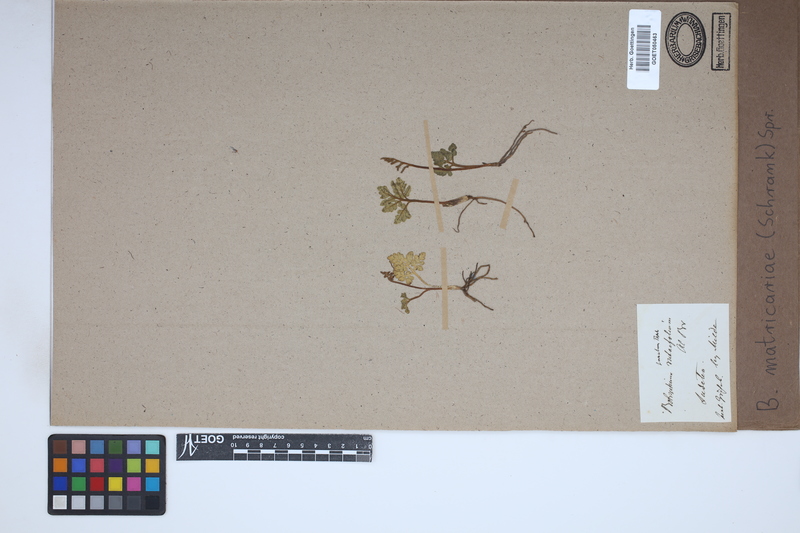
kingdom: Plantae
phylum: Tracheophyta
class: Polypodiopsida
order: Ophioglossales
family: Ophioglossaceae
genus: Sceptridium
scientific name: Sceptridium multifidum
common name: Leathery grape fern
